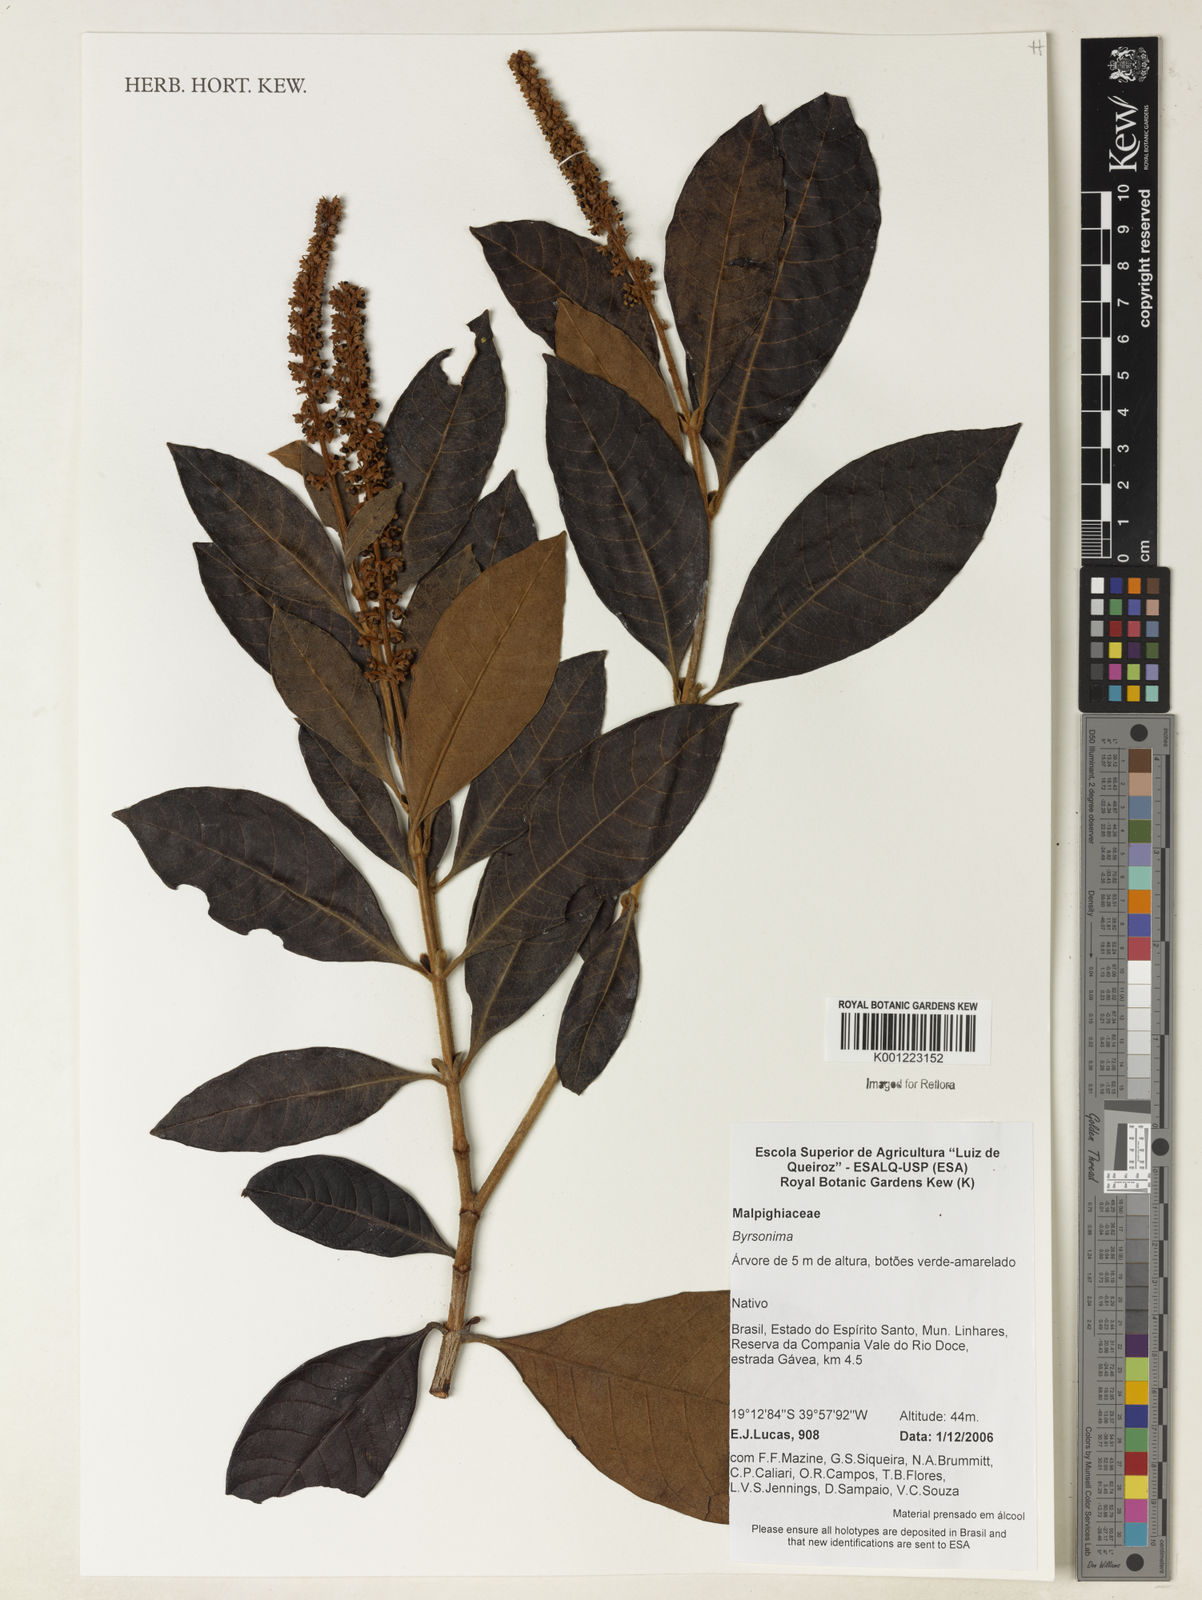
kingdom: Plantae
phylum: Tracheophyta
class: Magnoliopsida
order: Malpighiales
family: Malpighiaceae
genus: Byrsonima
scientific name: Byrsonima
